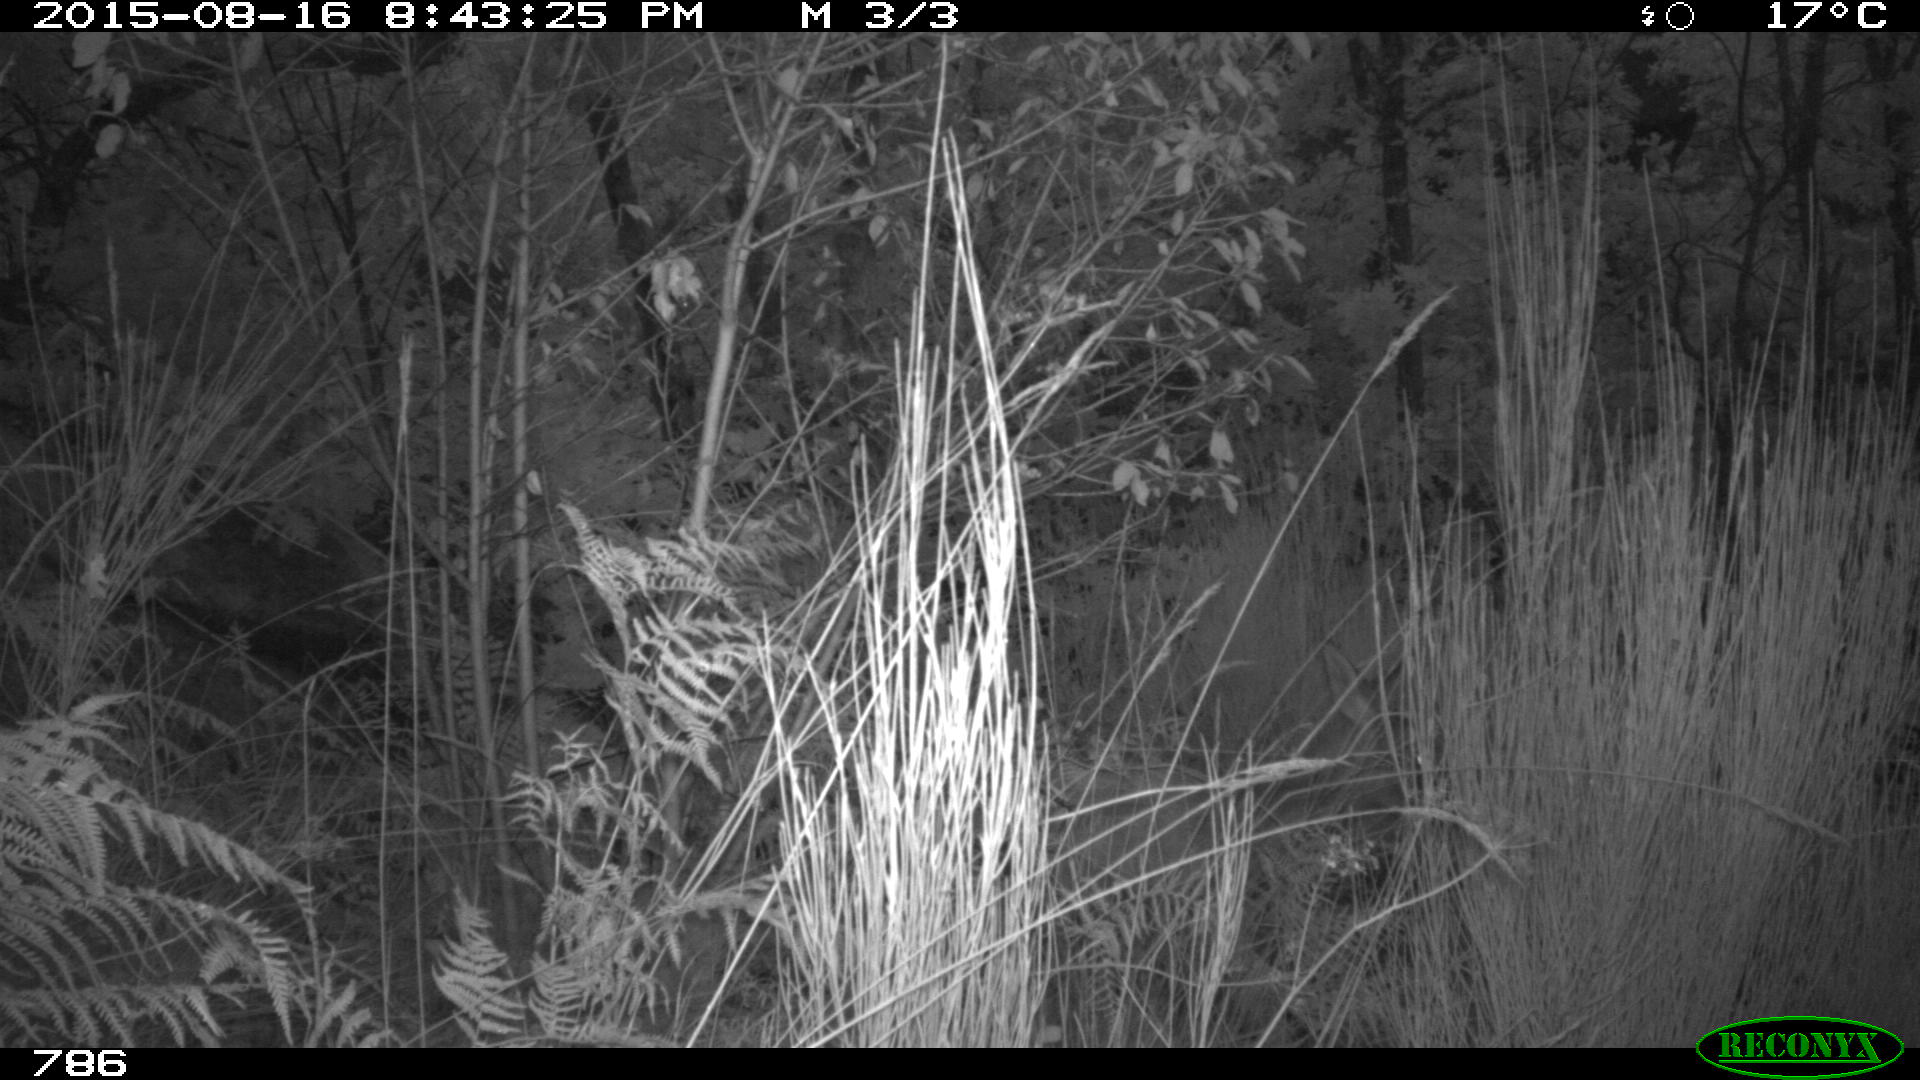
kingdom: Animalia
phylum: Chordata
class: Mammalia
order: Artiodactyla
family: Cervidae
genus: Capreolus
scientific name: Capreolus capreolus
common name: Western roe deer
